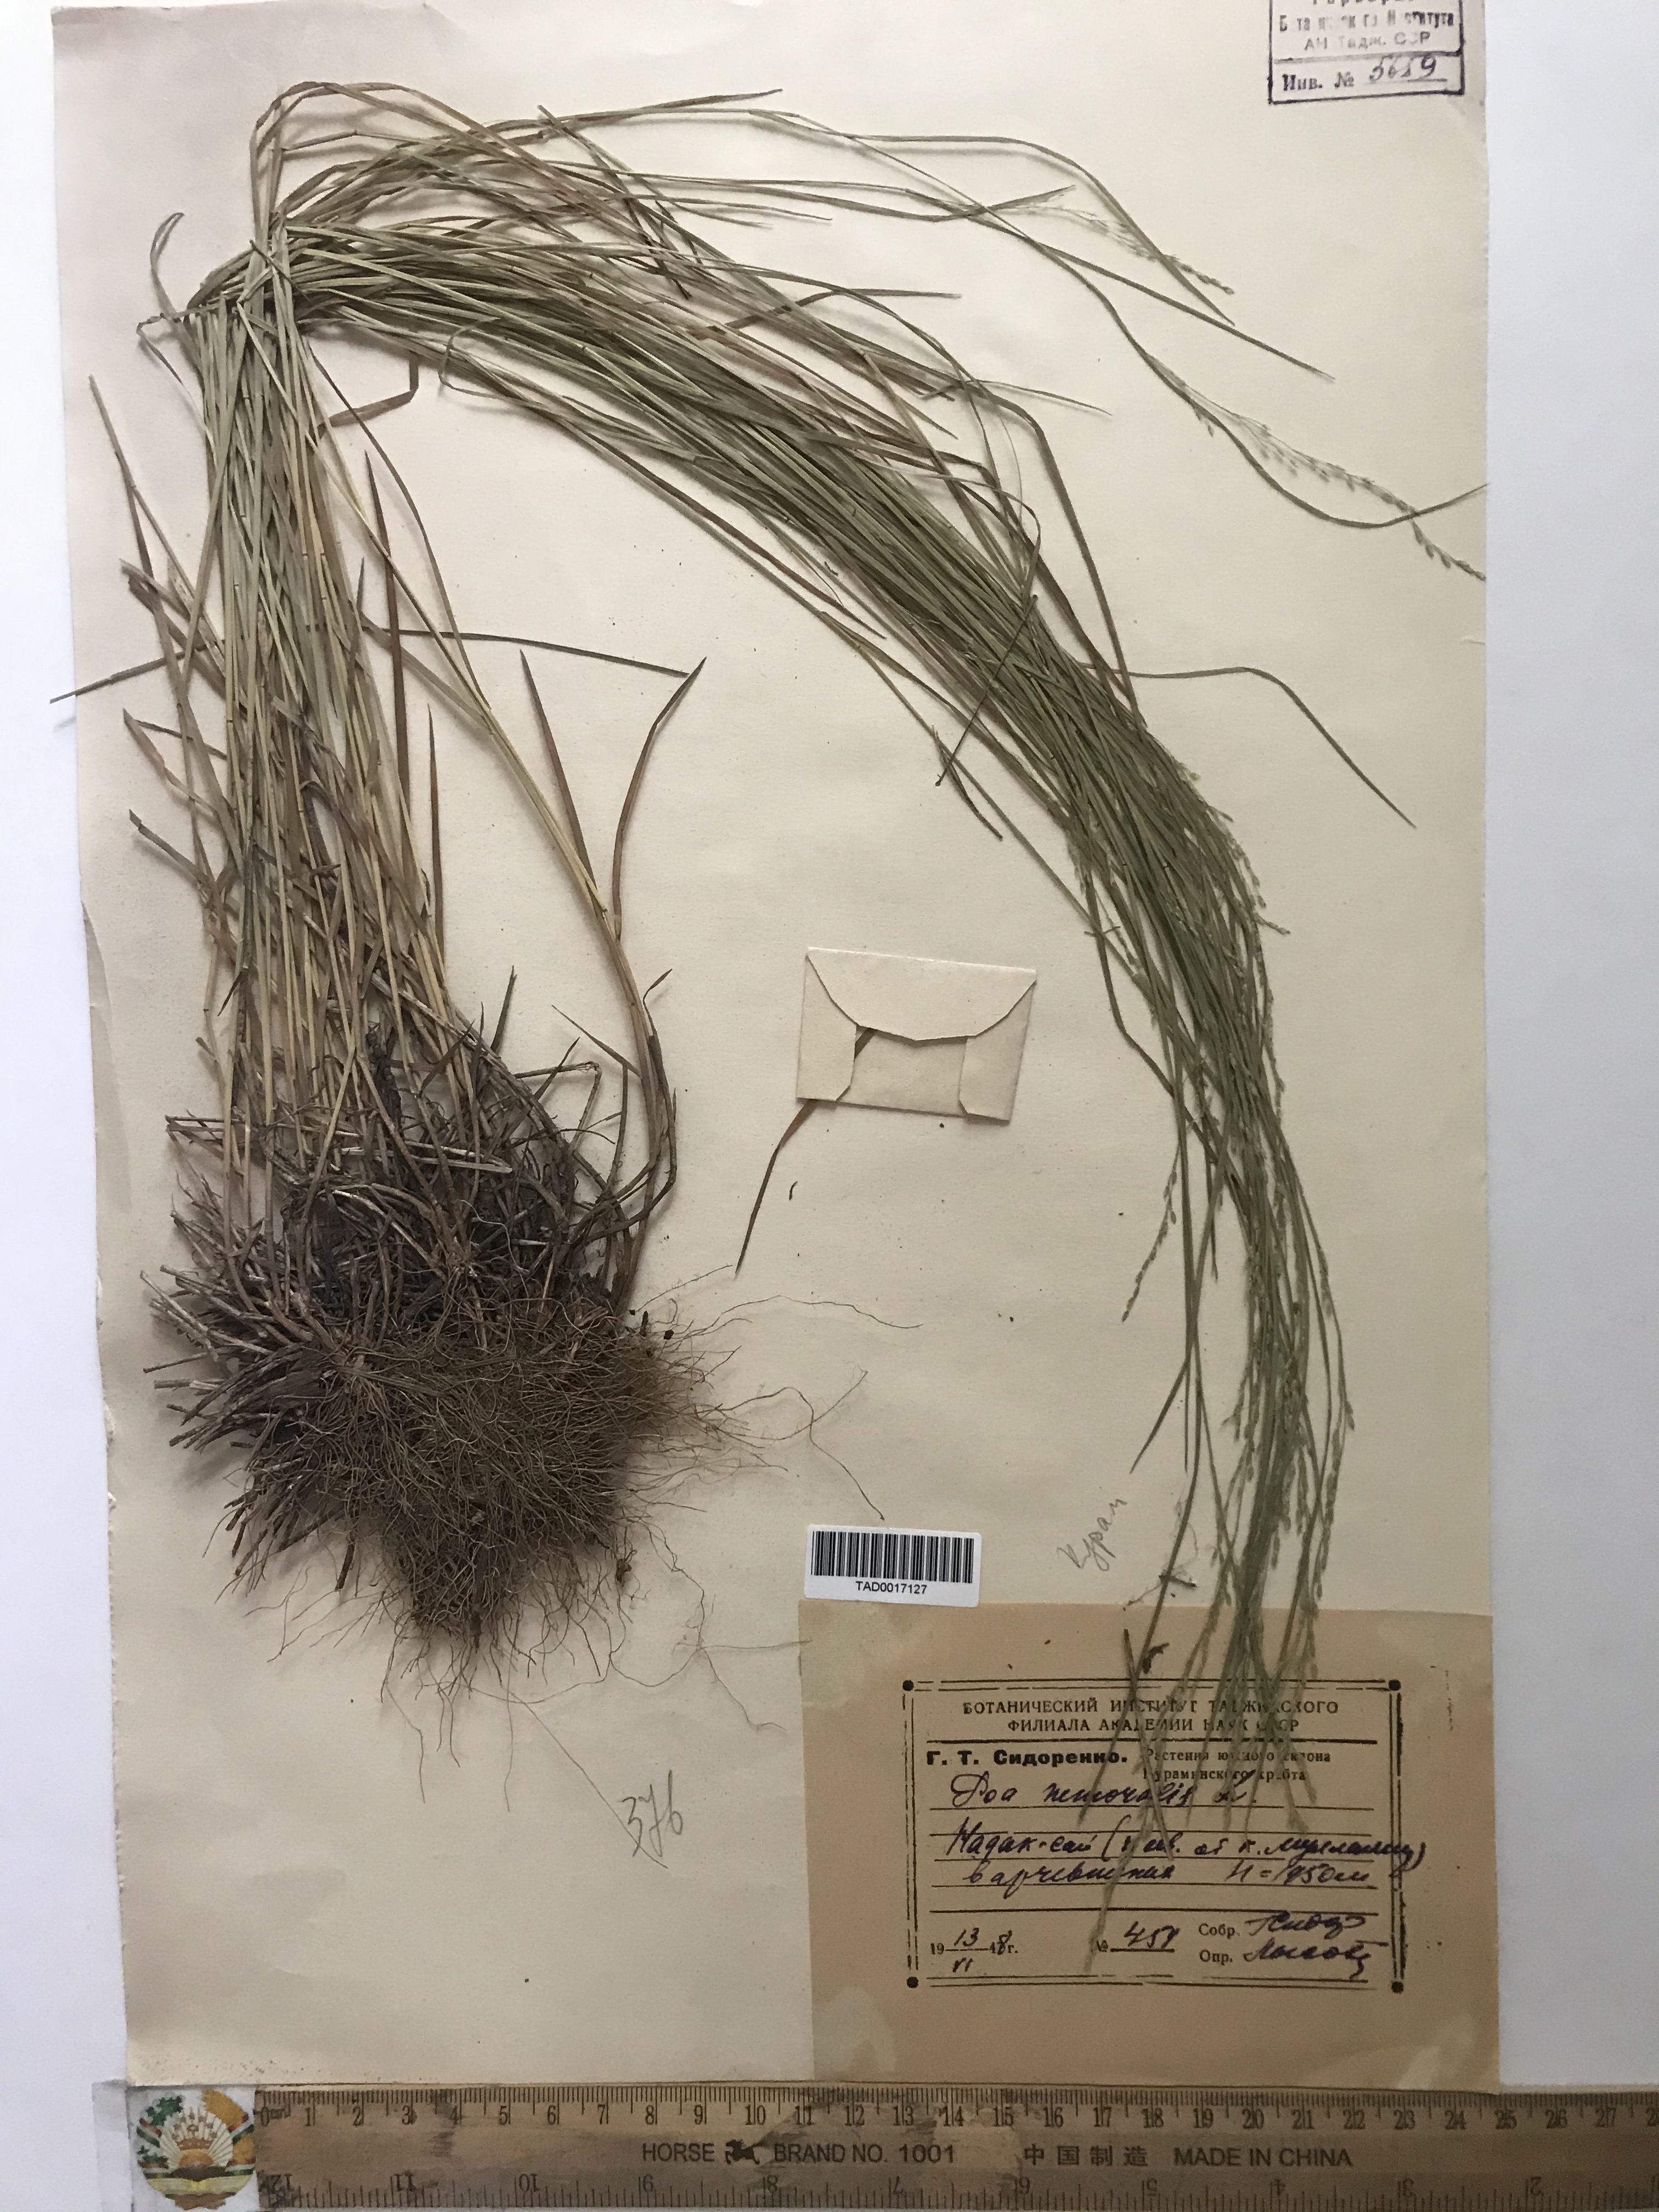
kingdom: Plantae
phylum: Tracheophyta
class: Liliopsida
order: Poales
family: Poaceae
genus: Poa
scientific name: Poa nemoralis
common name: Wood bluegrass
